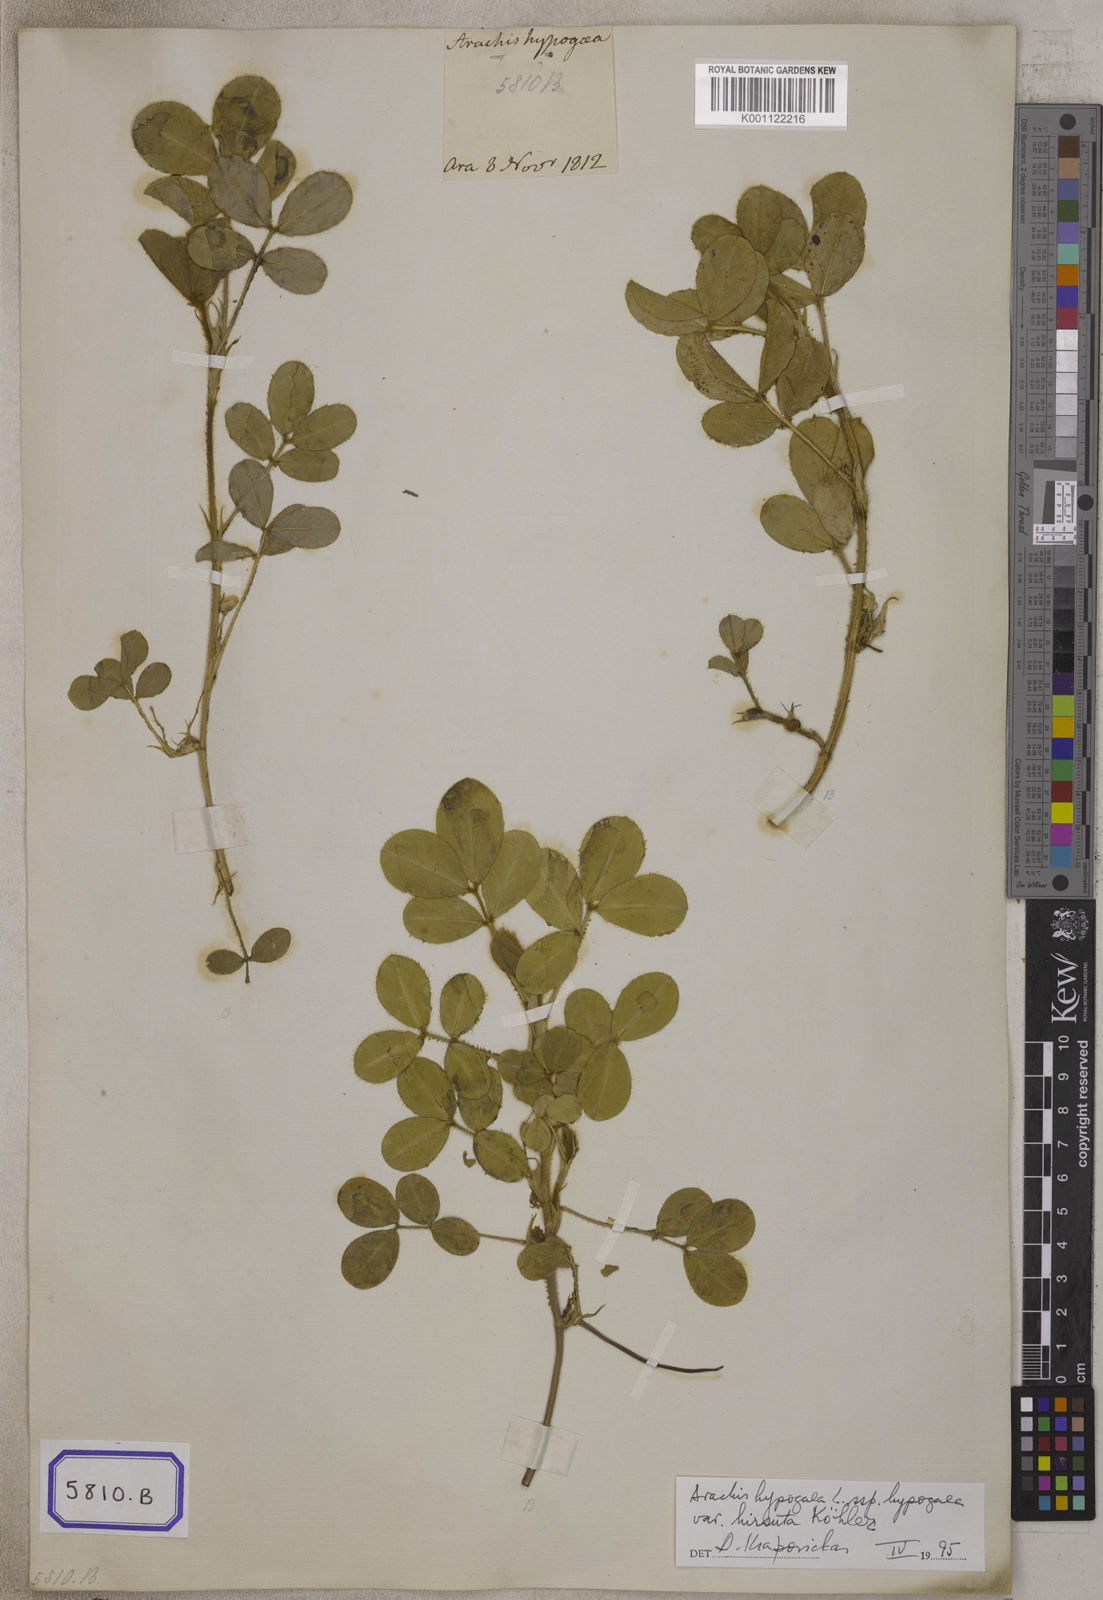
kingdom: Plantae
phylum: Tracheophyta
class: Magnoliopsida
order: Fabales
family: Fabaceae
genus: Arachis
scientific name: Arachis hypogaea
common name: Peanut
